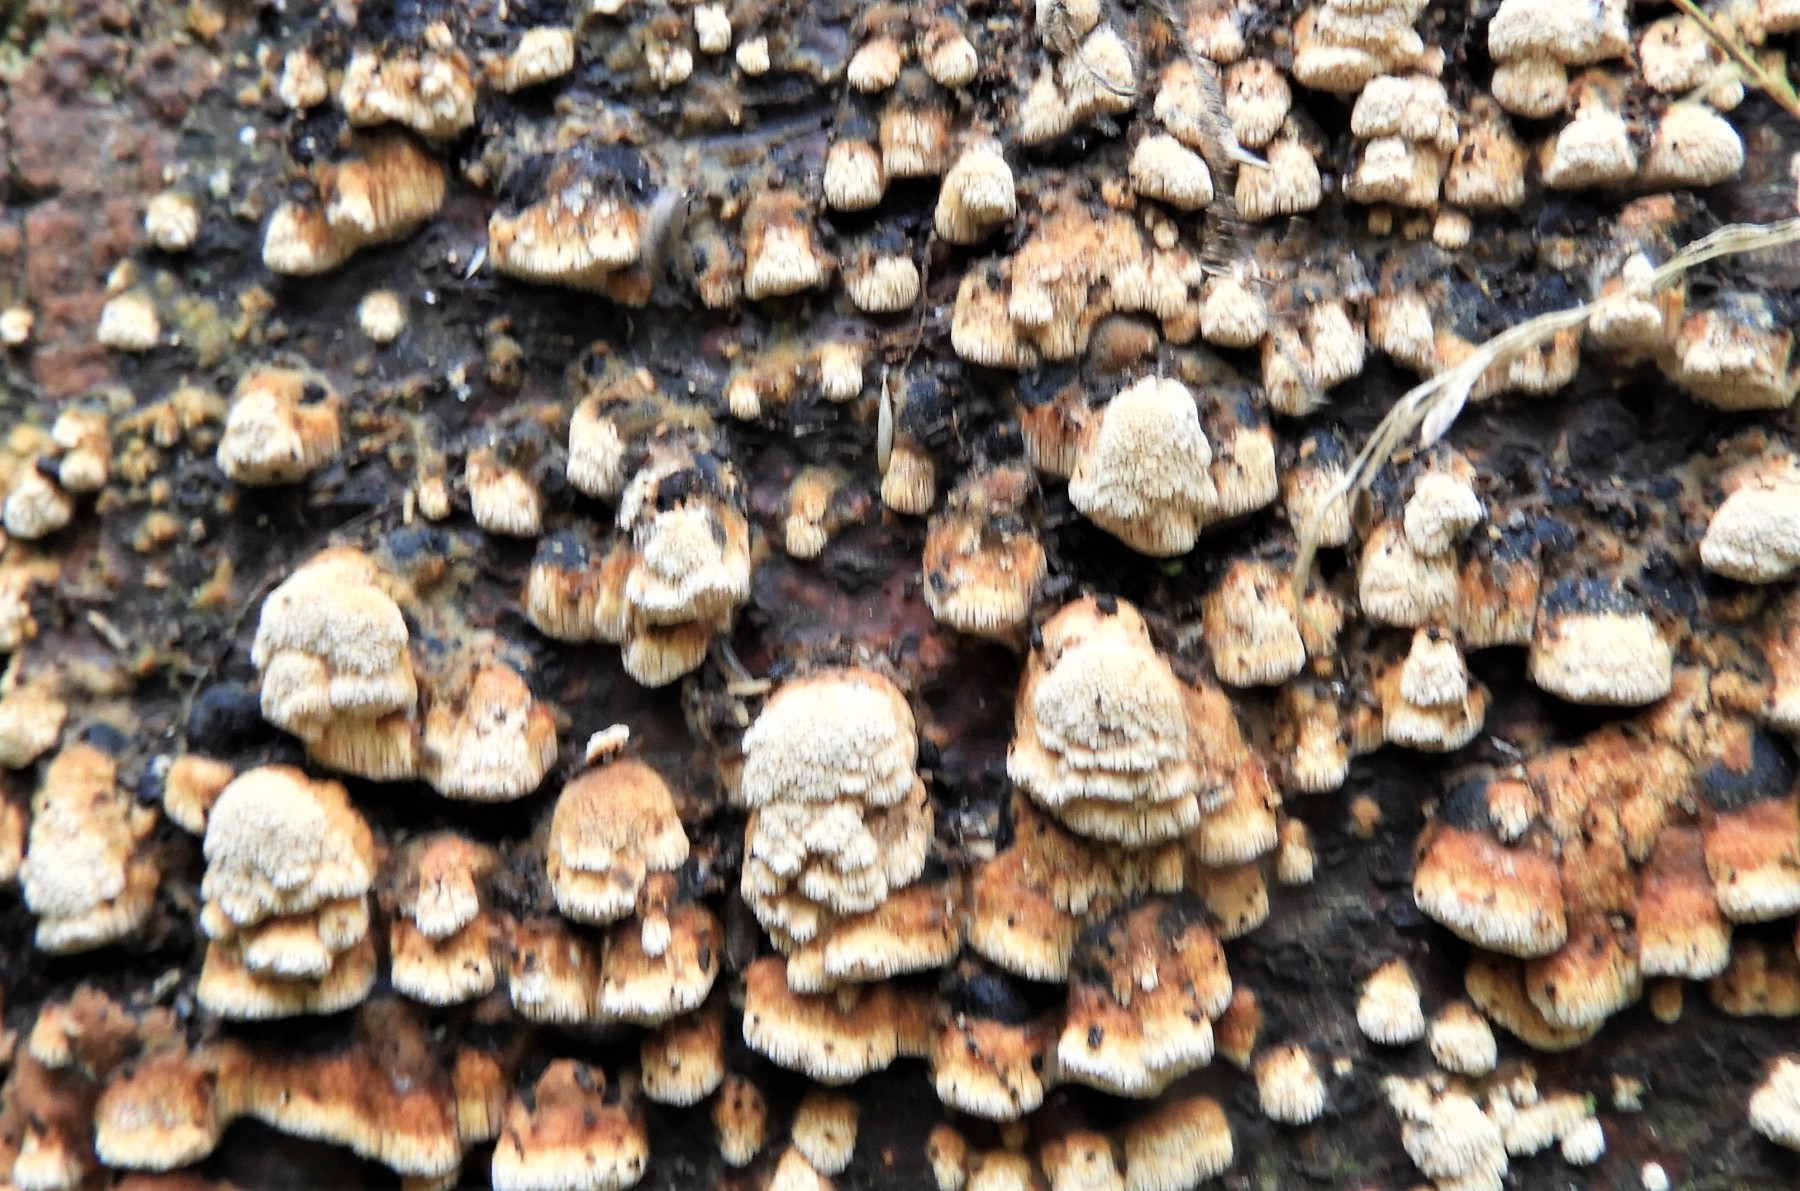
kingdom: Fungi
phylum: Basidiomycota
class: Agaricomycetes
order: Hymenochaetales
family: Hymenochaetaceae
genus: Mensularia
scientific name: Mensularia nodulosa
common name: bøge-spejlporesvamp
